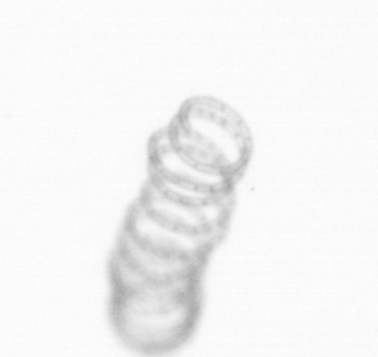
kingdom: Chromista
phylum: Ochrophyta
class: Bacillariophyceae
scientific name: Bacillariophyceae
